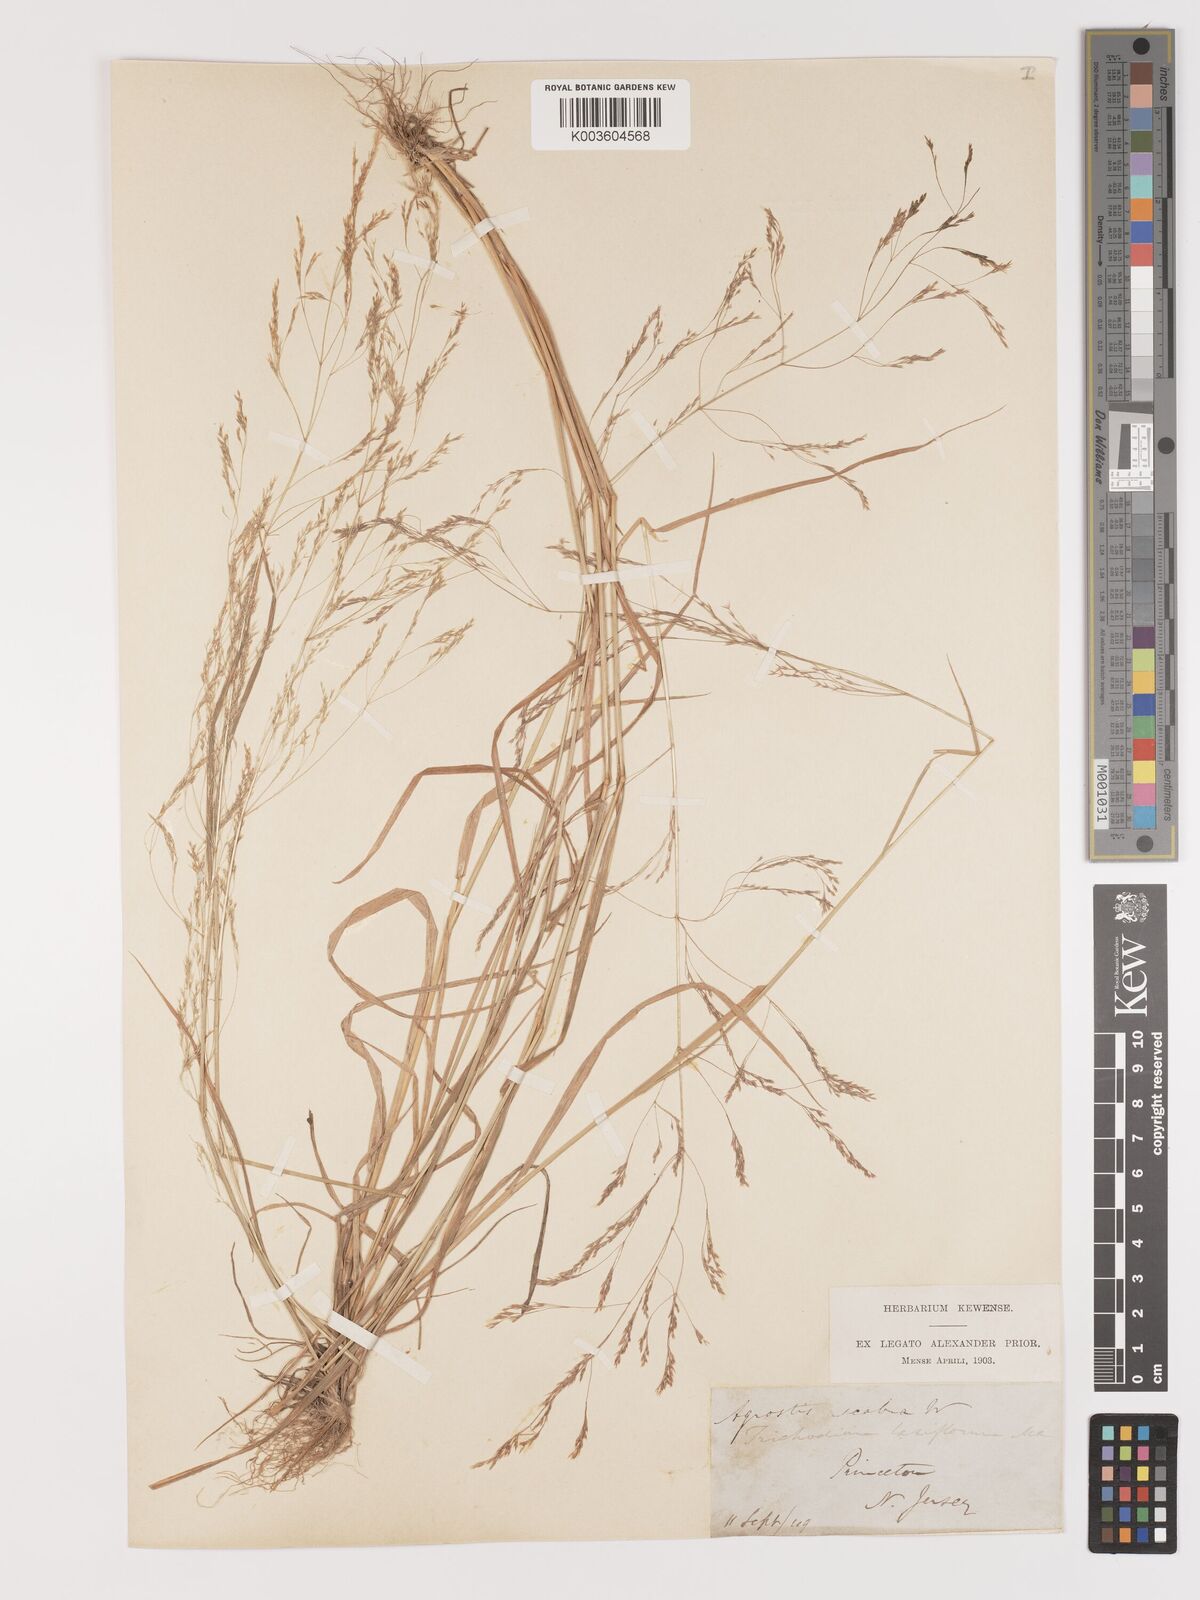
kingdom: Plantae
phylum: Tracheophyta
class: Liliopsida
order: Poales
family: Poaceae
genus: Agrostis
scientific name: Agrostis hyemalis
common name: Small bent
